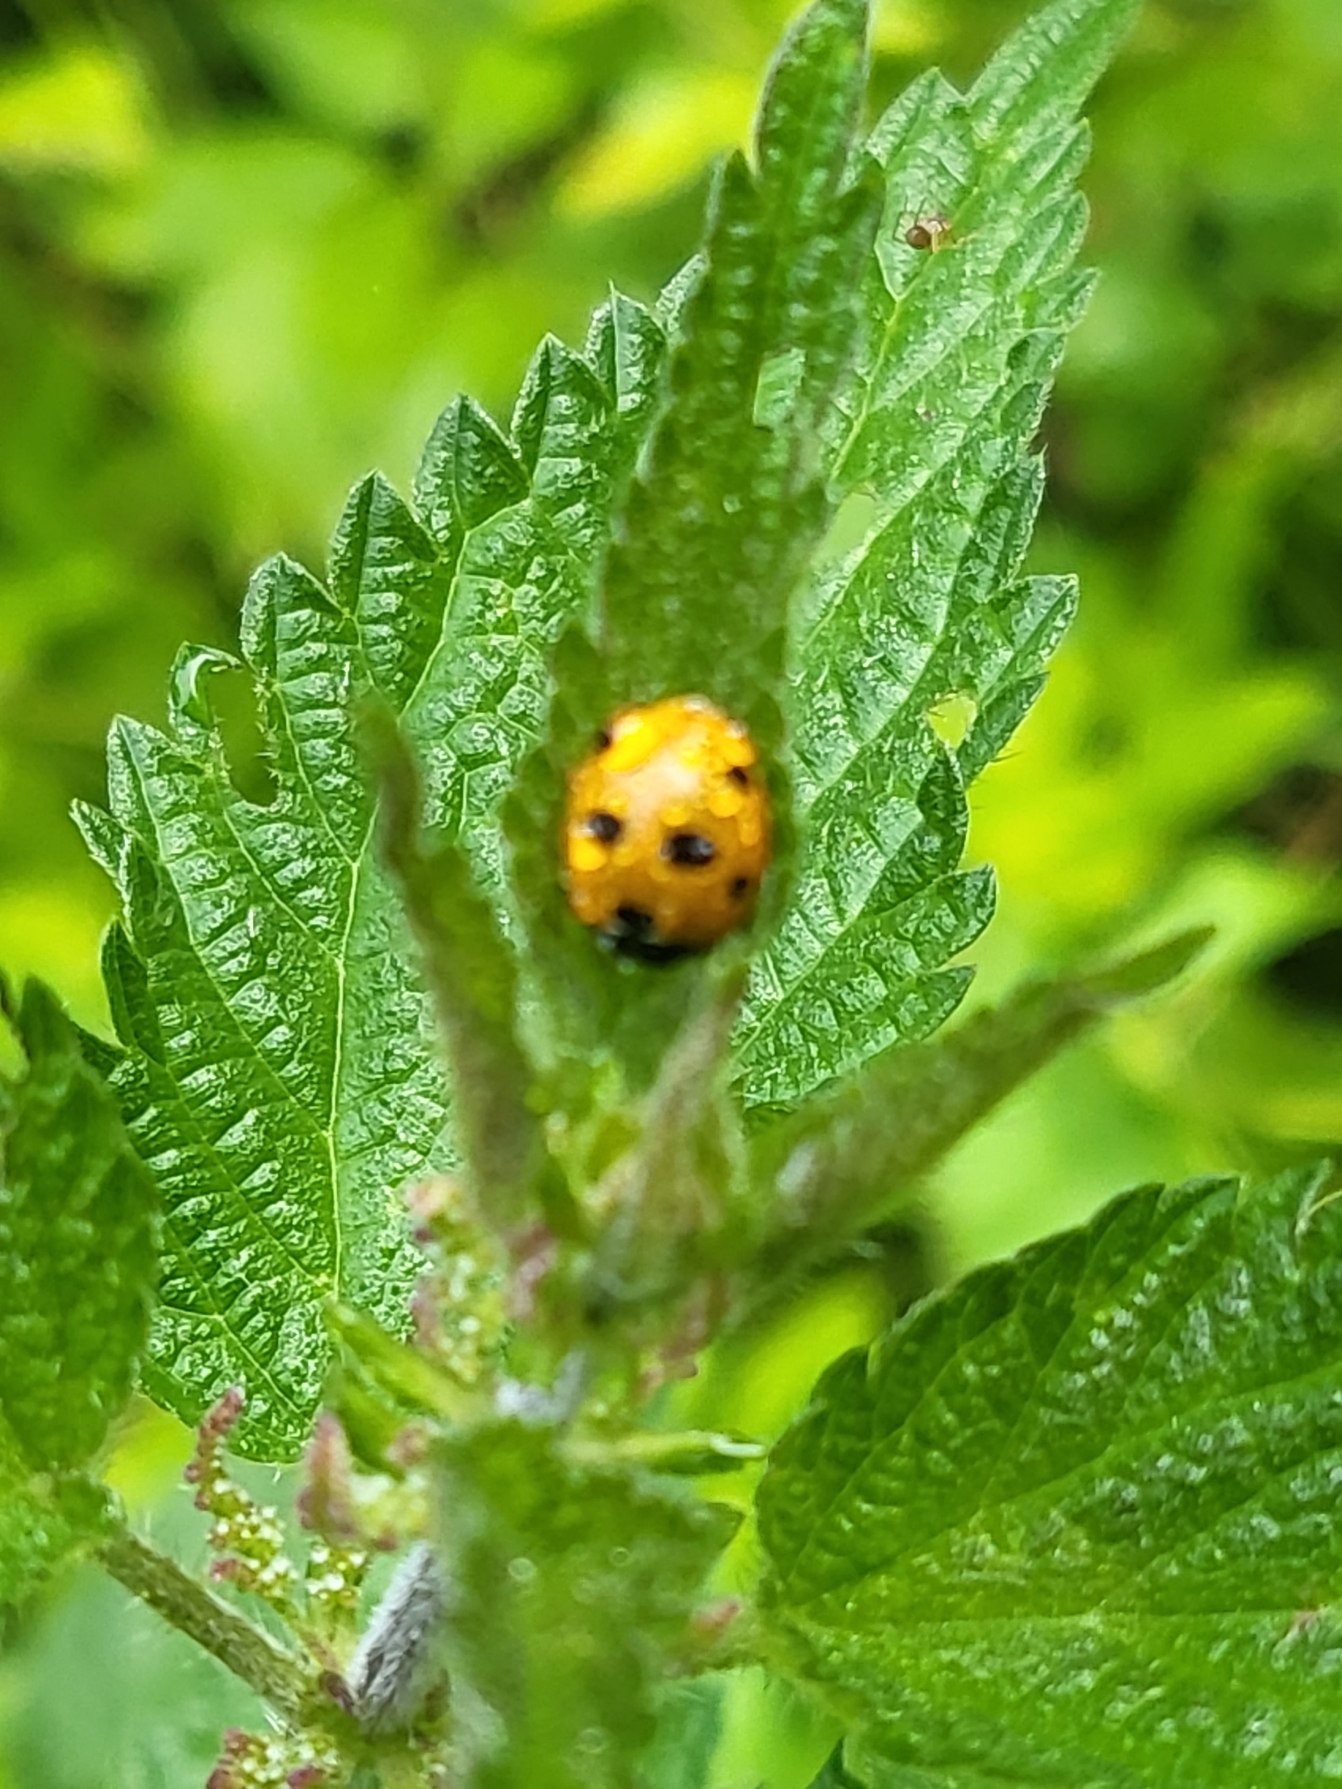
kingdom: Animalia
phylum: Arthropoda
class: Insecta
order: Coleoptera
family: Coccinellidae
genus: Coccinella
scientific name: Coccinella septempunctata
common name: Syvplettet mariehøne
